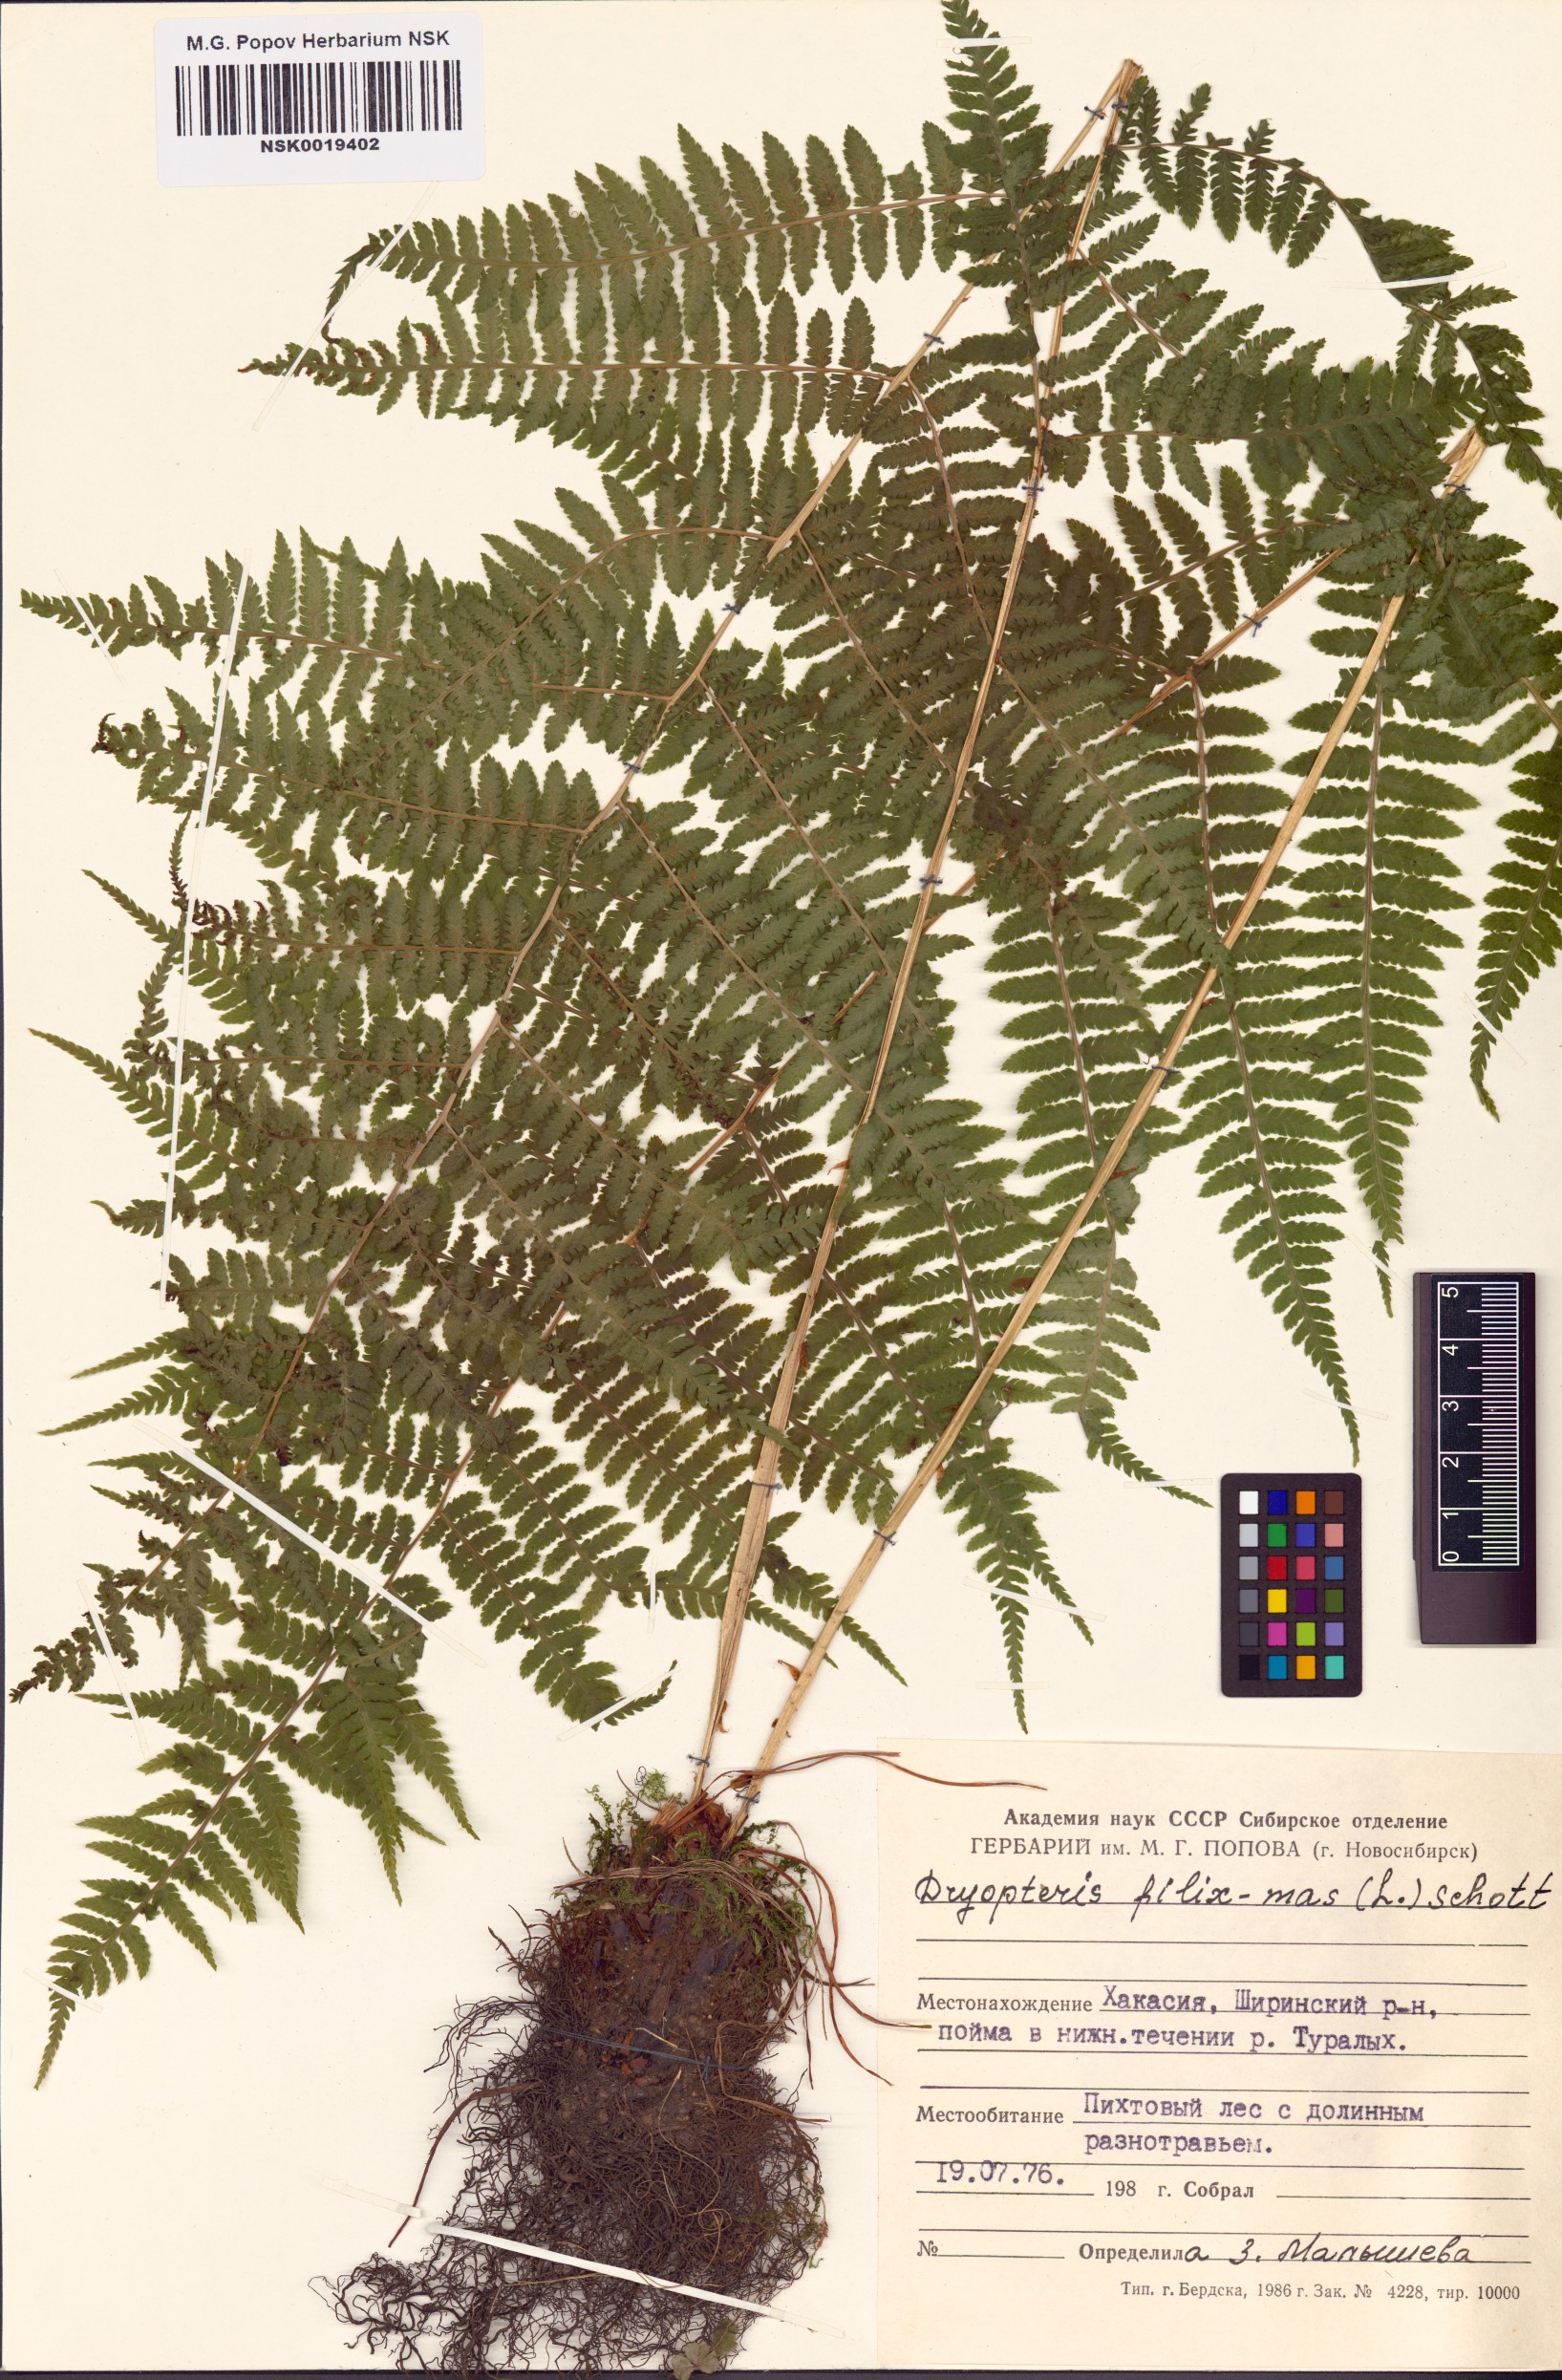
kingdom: Plantae
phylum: Tracheophyta
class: Polypodiopsida
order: Polypodiales
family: Dryopteridaceae
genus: Dryopteris
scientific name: Dryopteris filix-mas
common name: Male fern
